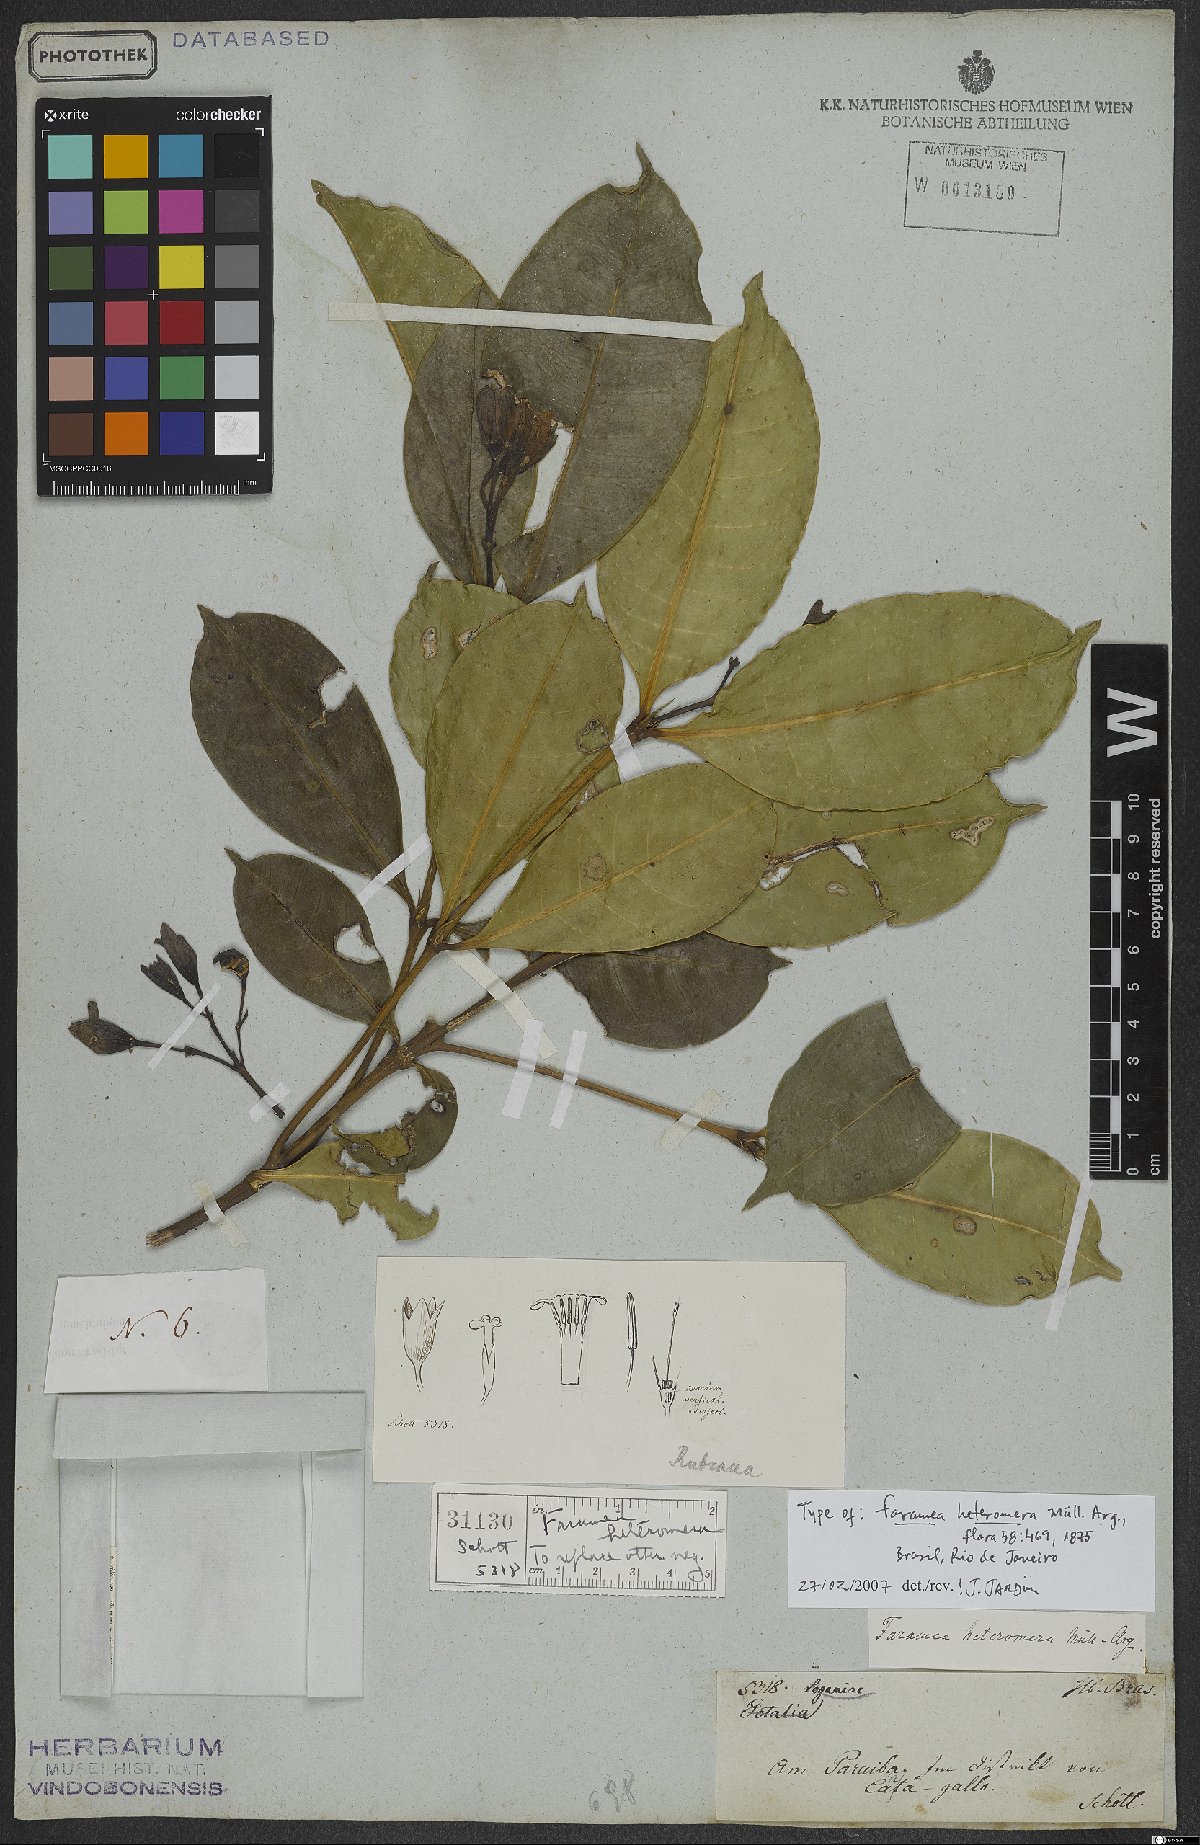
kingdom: Plantae
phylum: Tracheophyta
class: Magnoliopsida
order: Gentianales
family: Rubiaceae
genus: Faramea
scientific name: Faramea heteromera
